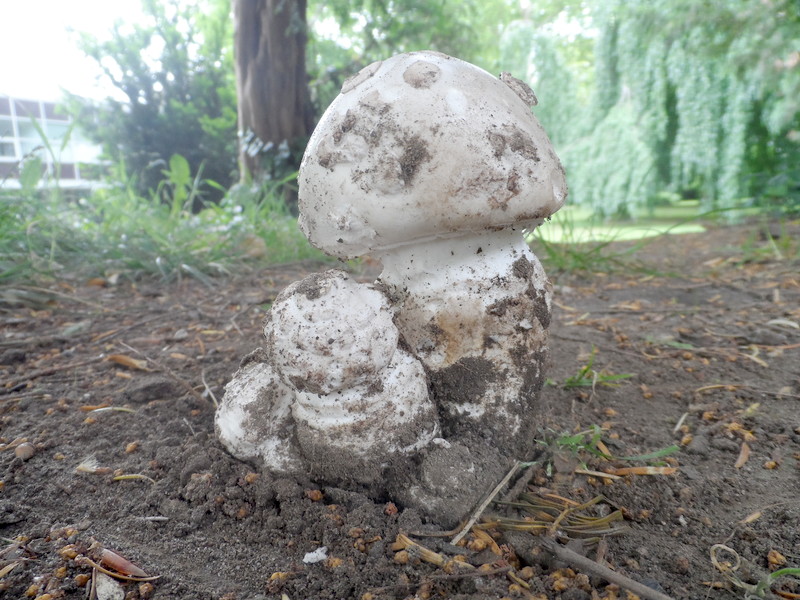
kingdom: Fungi
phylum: Basidiomycota
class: Agaricomycetes
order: Agaricales
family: Amanitaceae
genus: Amanita
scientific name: Amanita strobiliformis
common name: Warted amanita
